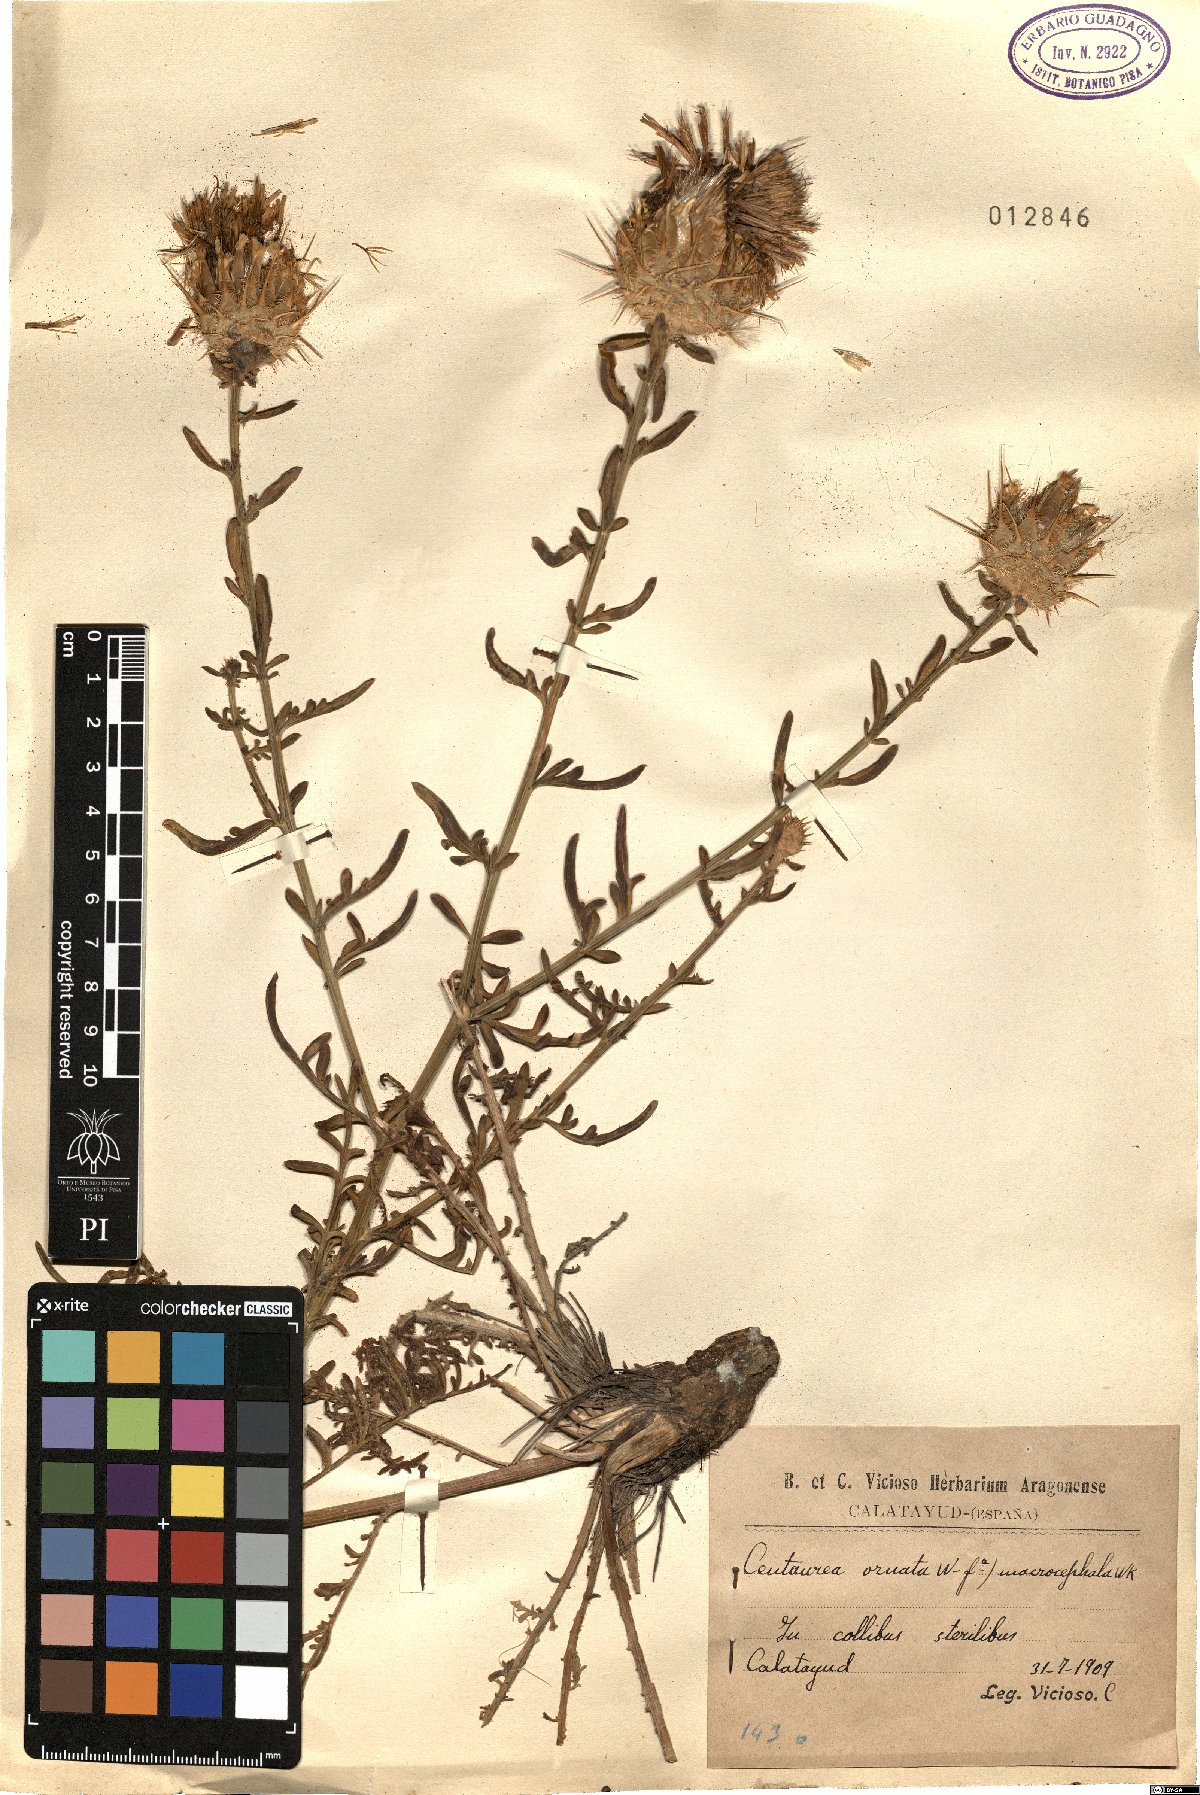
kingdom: Plantae
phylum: Tracheophyta
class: Magnoliopsida
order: Asterales
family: Asteraceae
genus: Centaurea
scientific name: Centaurea ornata
